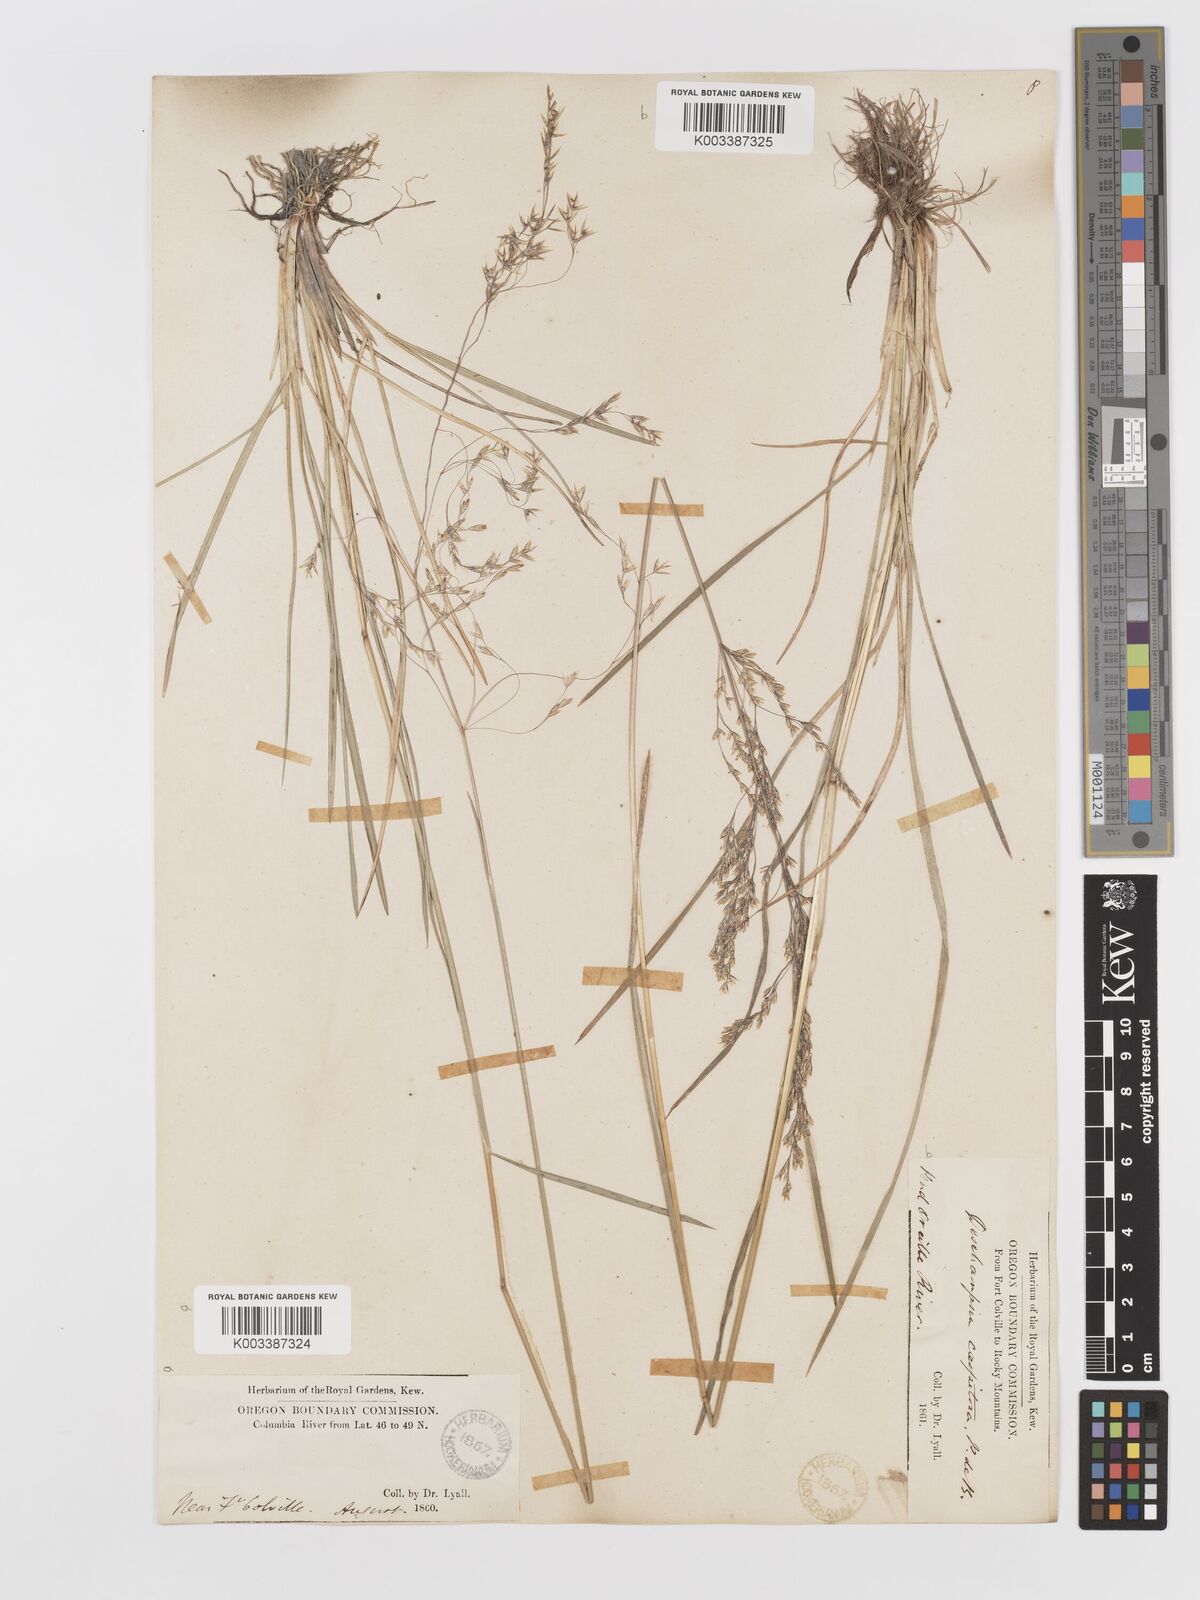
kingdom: Plantae
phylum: Tracheophyta
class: Liliopsida
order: Poales
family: Poaceae
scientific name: Poaceae
